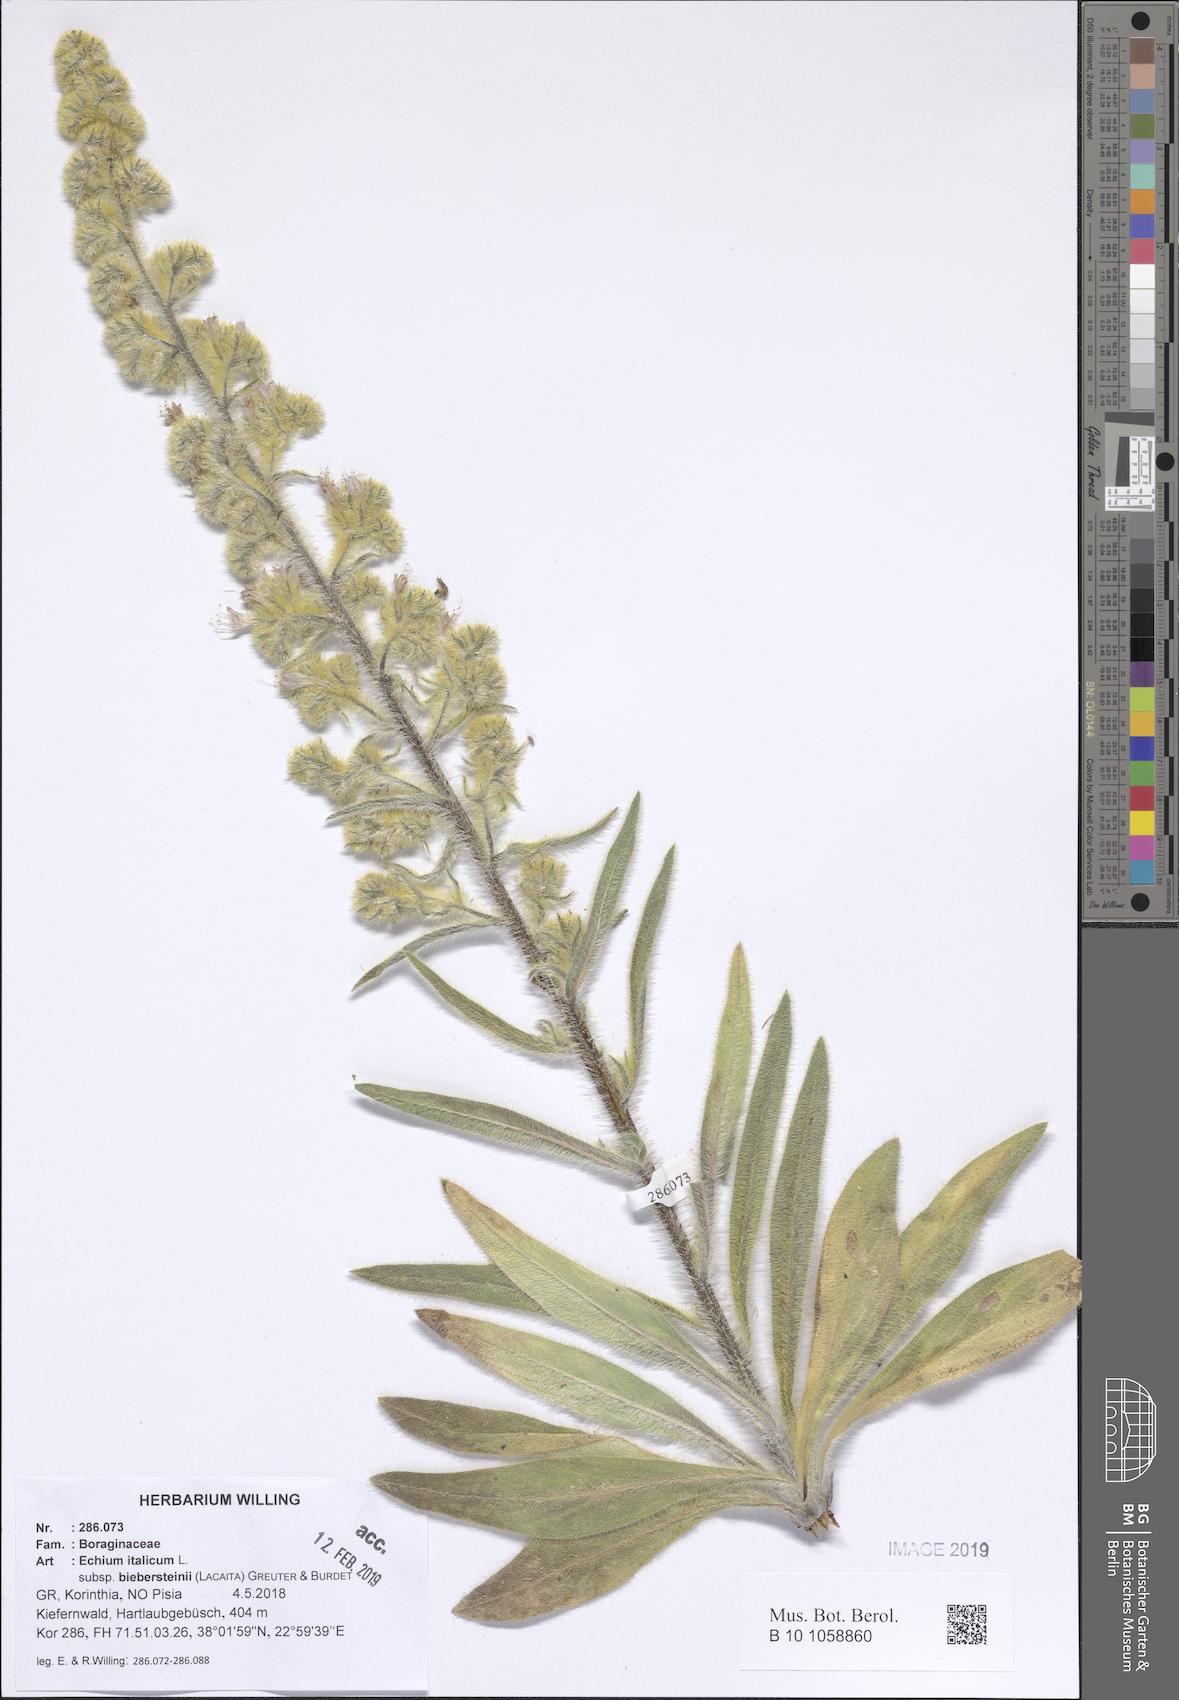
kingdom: Plantae
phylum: Tracheophyta
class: Magnoliopsida
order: Boraginales
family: Boraginaceae
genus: Echium
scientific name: Echium italicum
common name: Italian viper's bugloss
